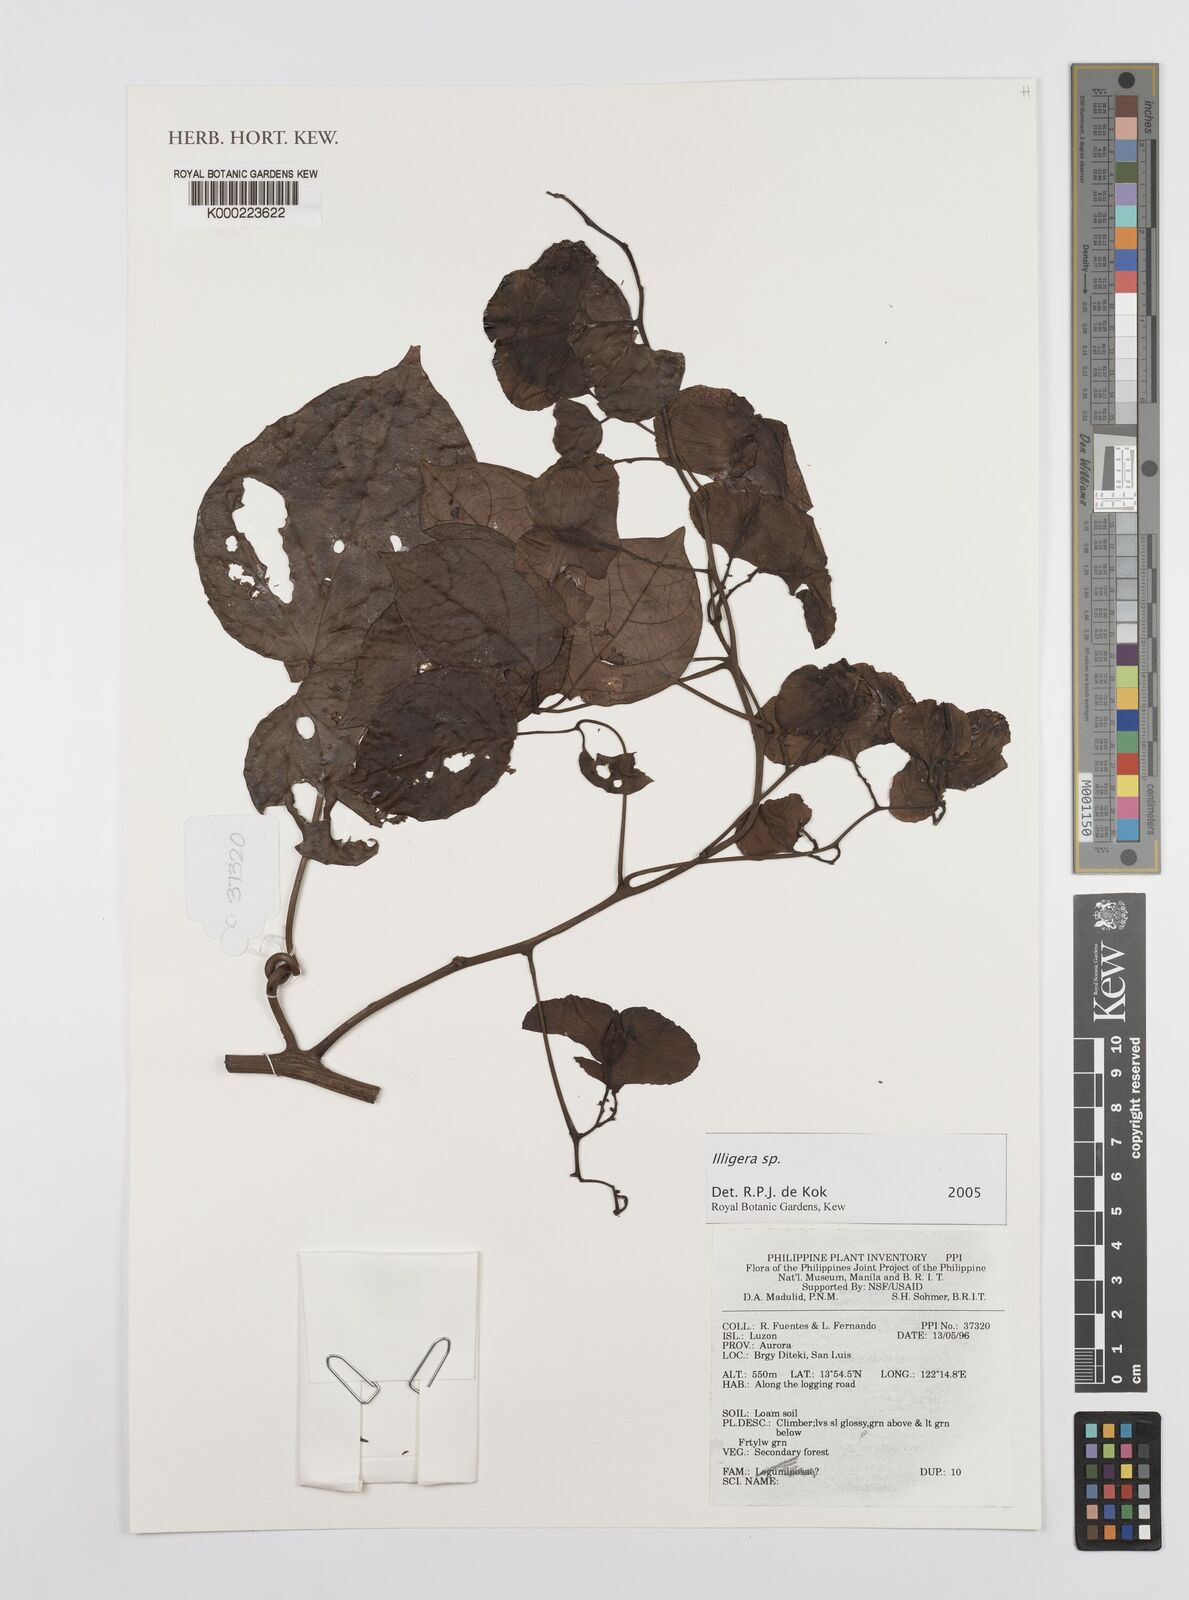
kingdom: Plantae
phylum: Tracheophyta
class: Magnoliopsida
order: Laurales
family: Hernandiaceae
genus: Illigera
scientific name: Illigera
